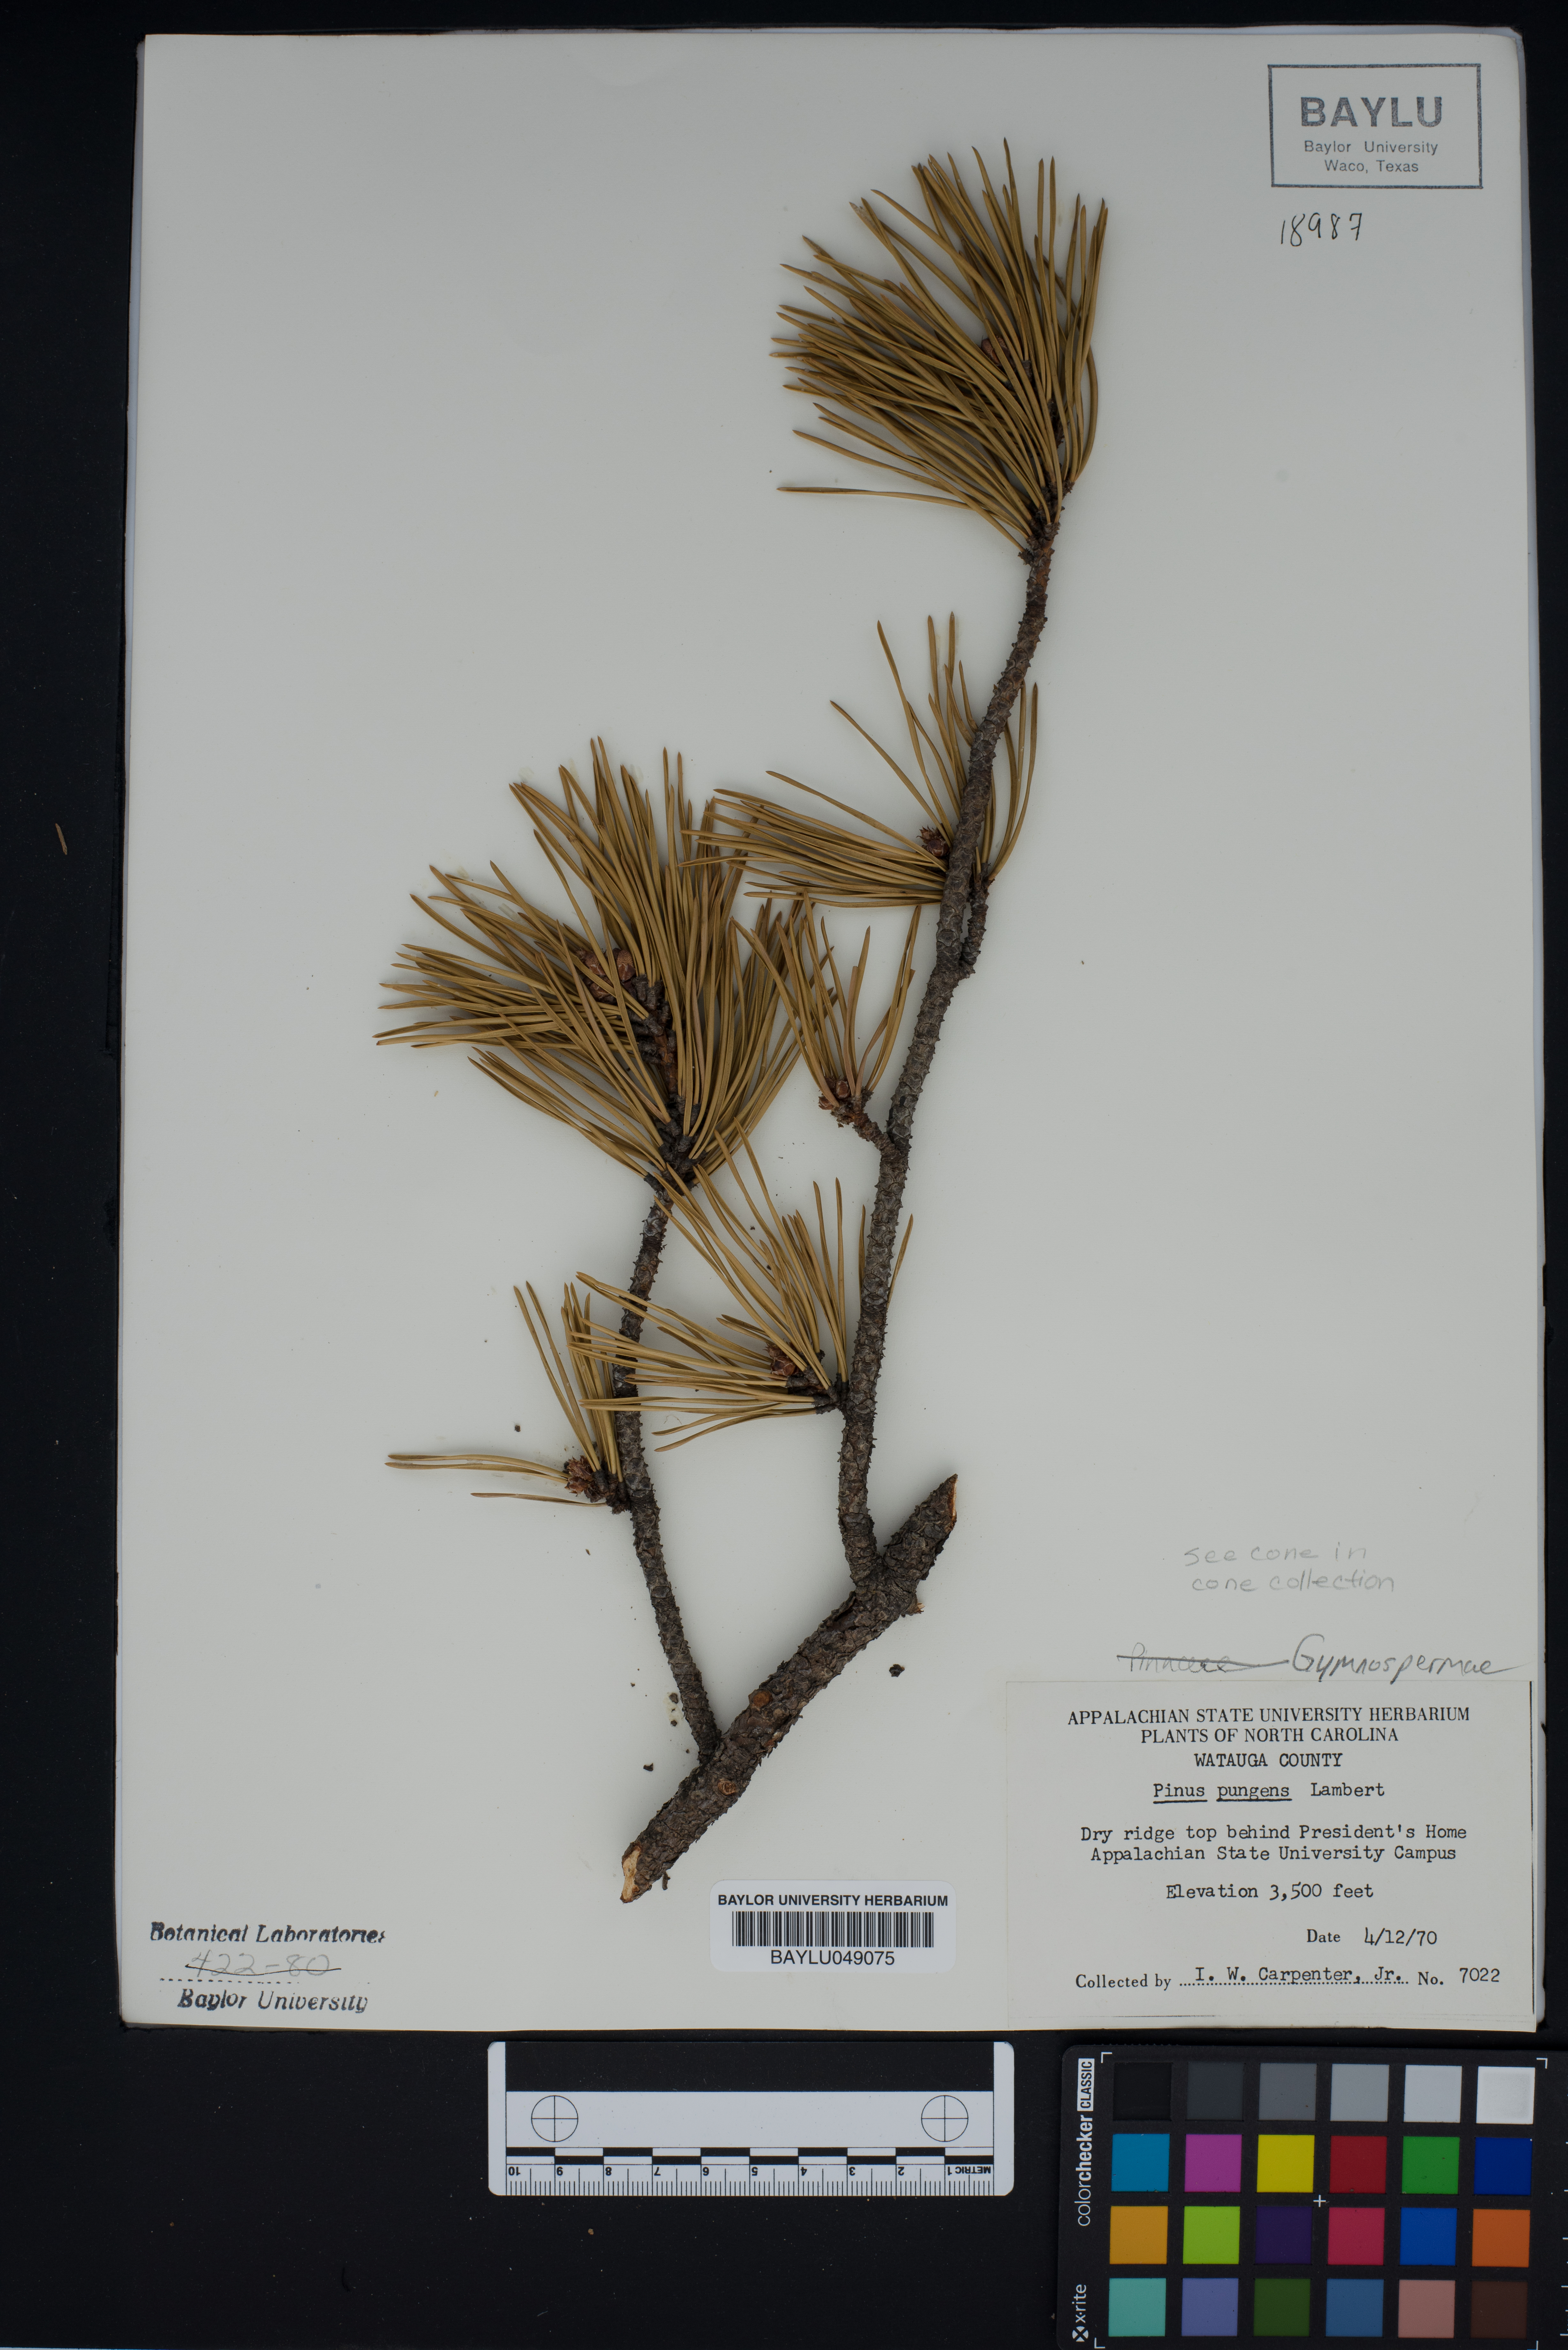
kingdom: Plantae
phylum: Tracheophyta
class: Pinopsida
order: Pinales
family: Pinaceae
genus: Pinus
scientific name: Pinus pungens
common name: Hickory pine
